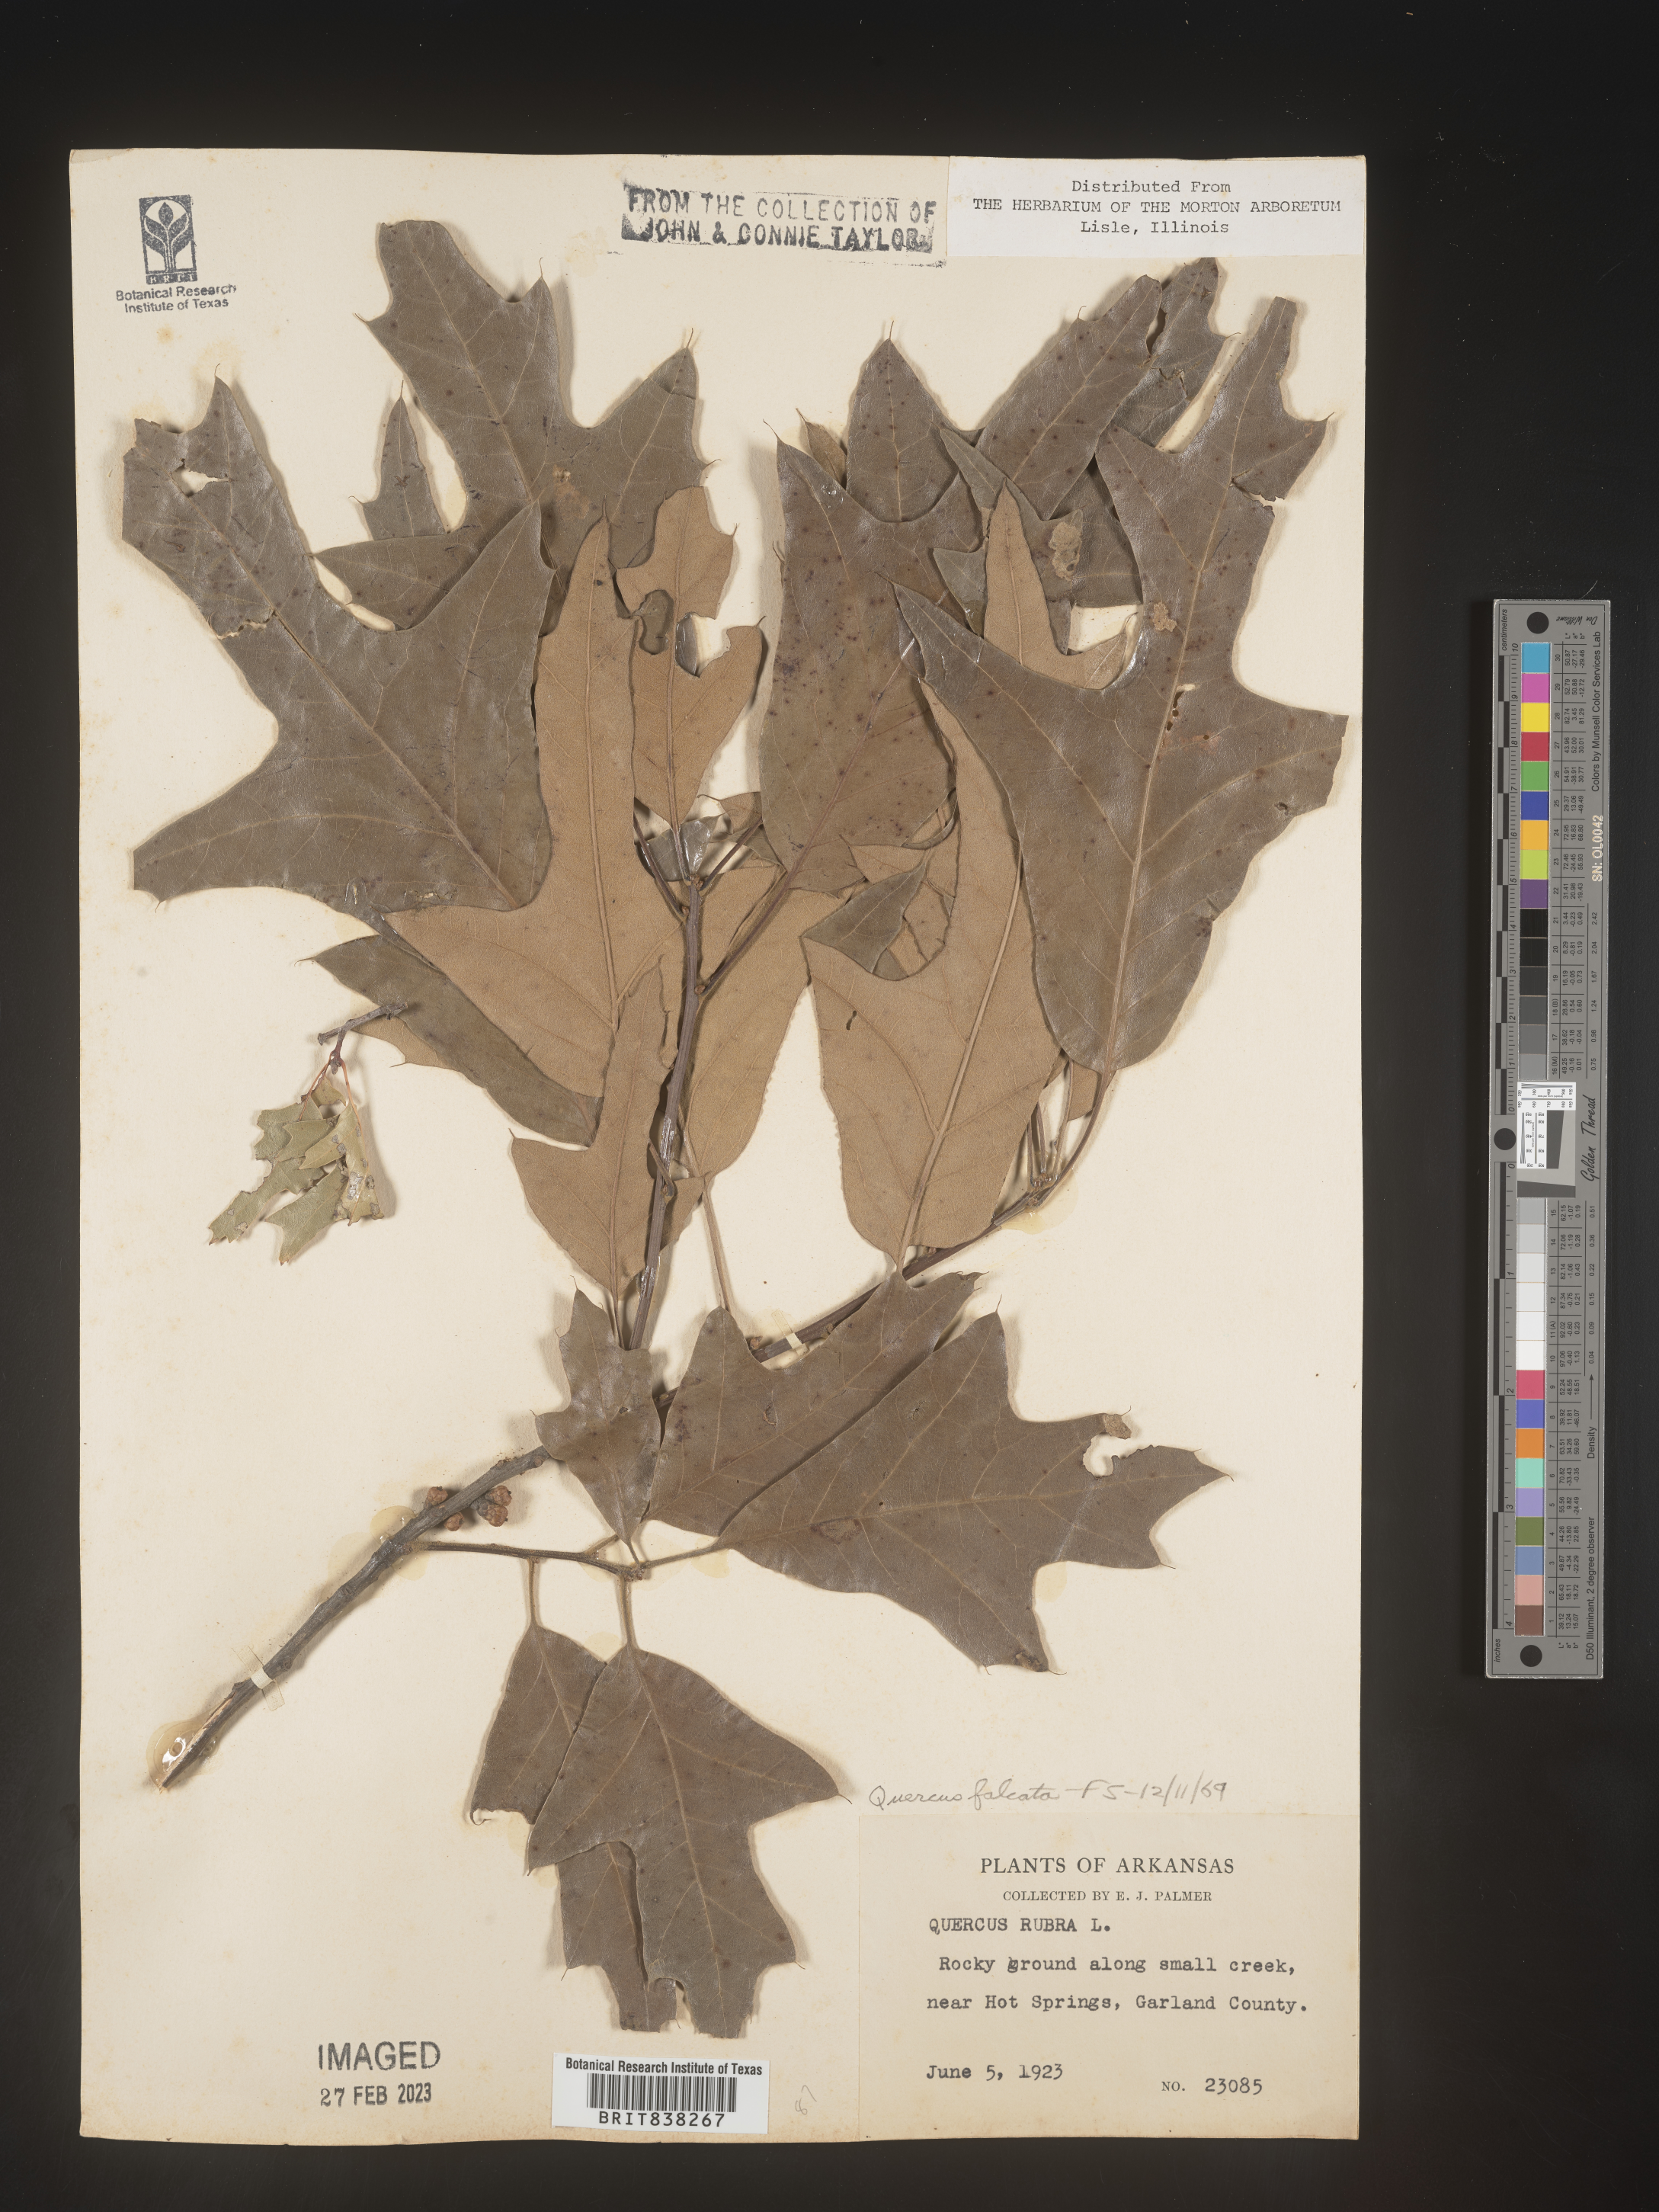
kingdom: Plantae
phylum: Tracheophyta
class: Magnoliopsida
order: Fagales
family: Fagaceae
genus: Quercus
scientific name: Quercus falcata
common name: Southern red oak
